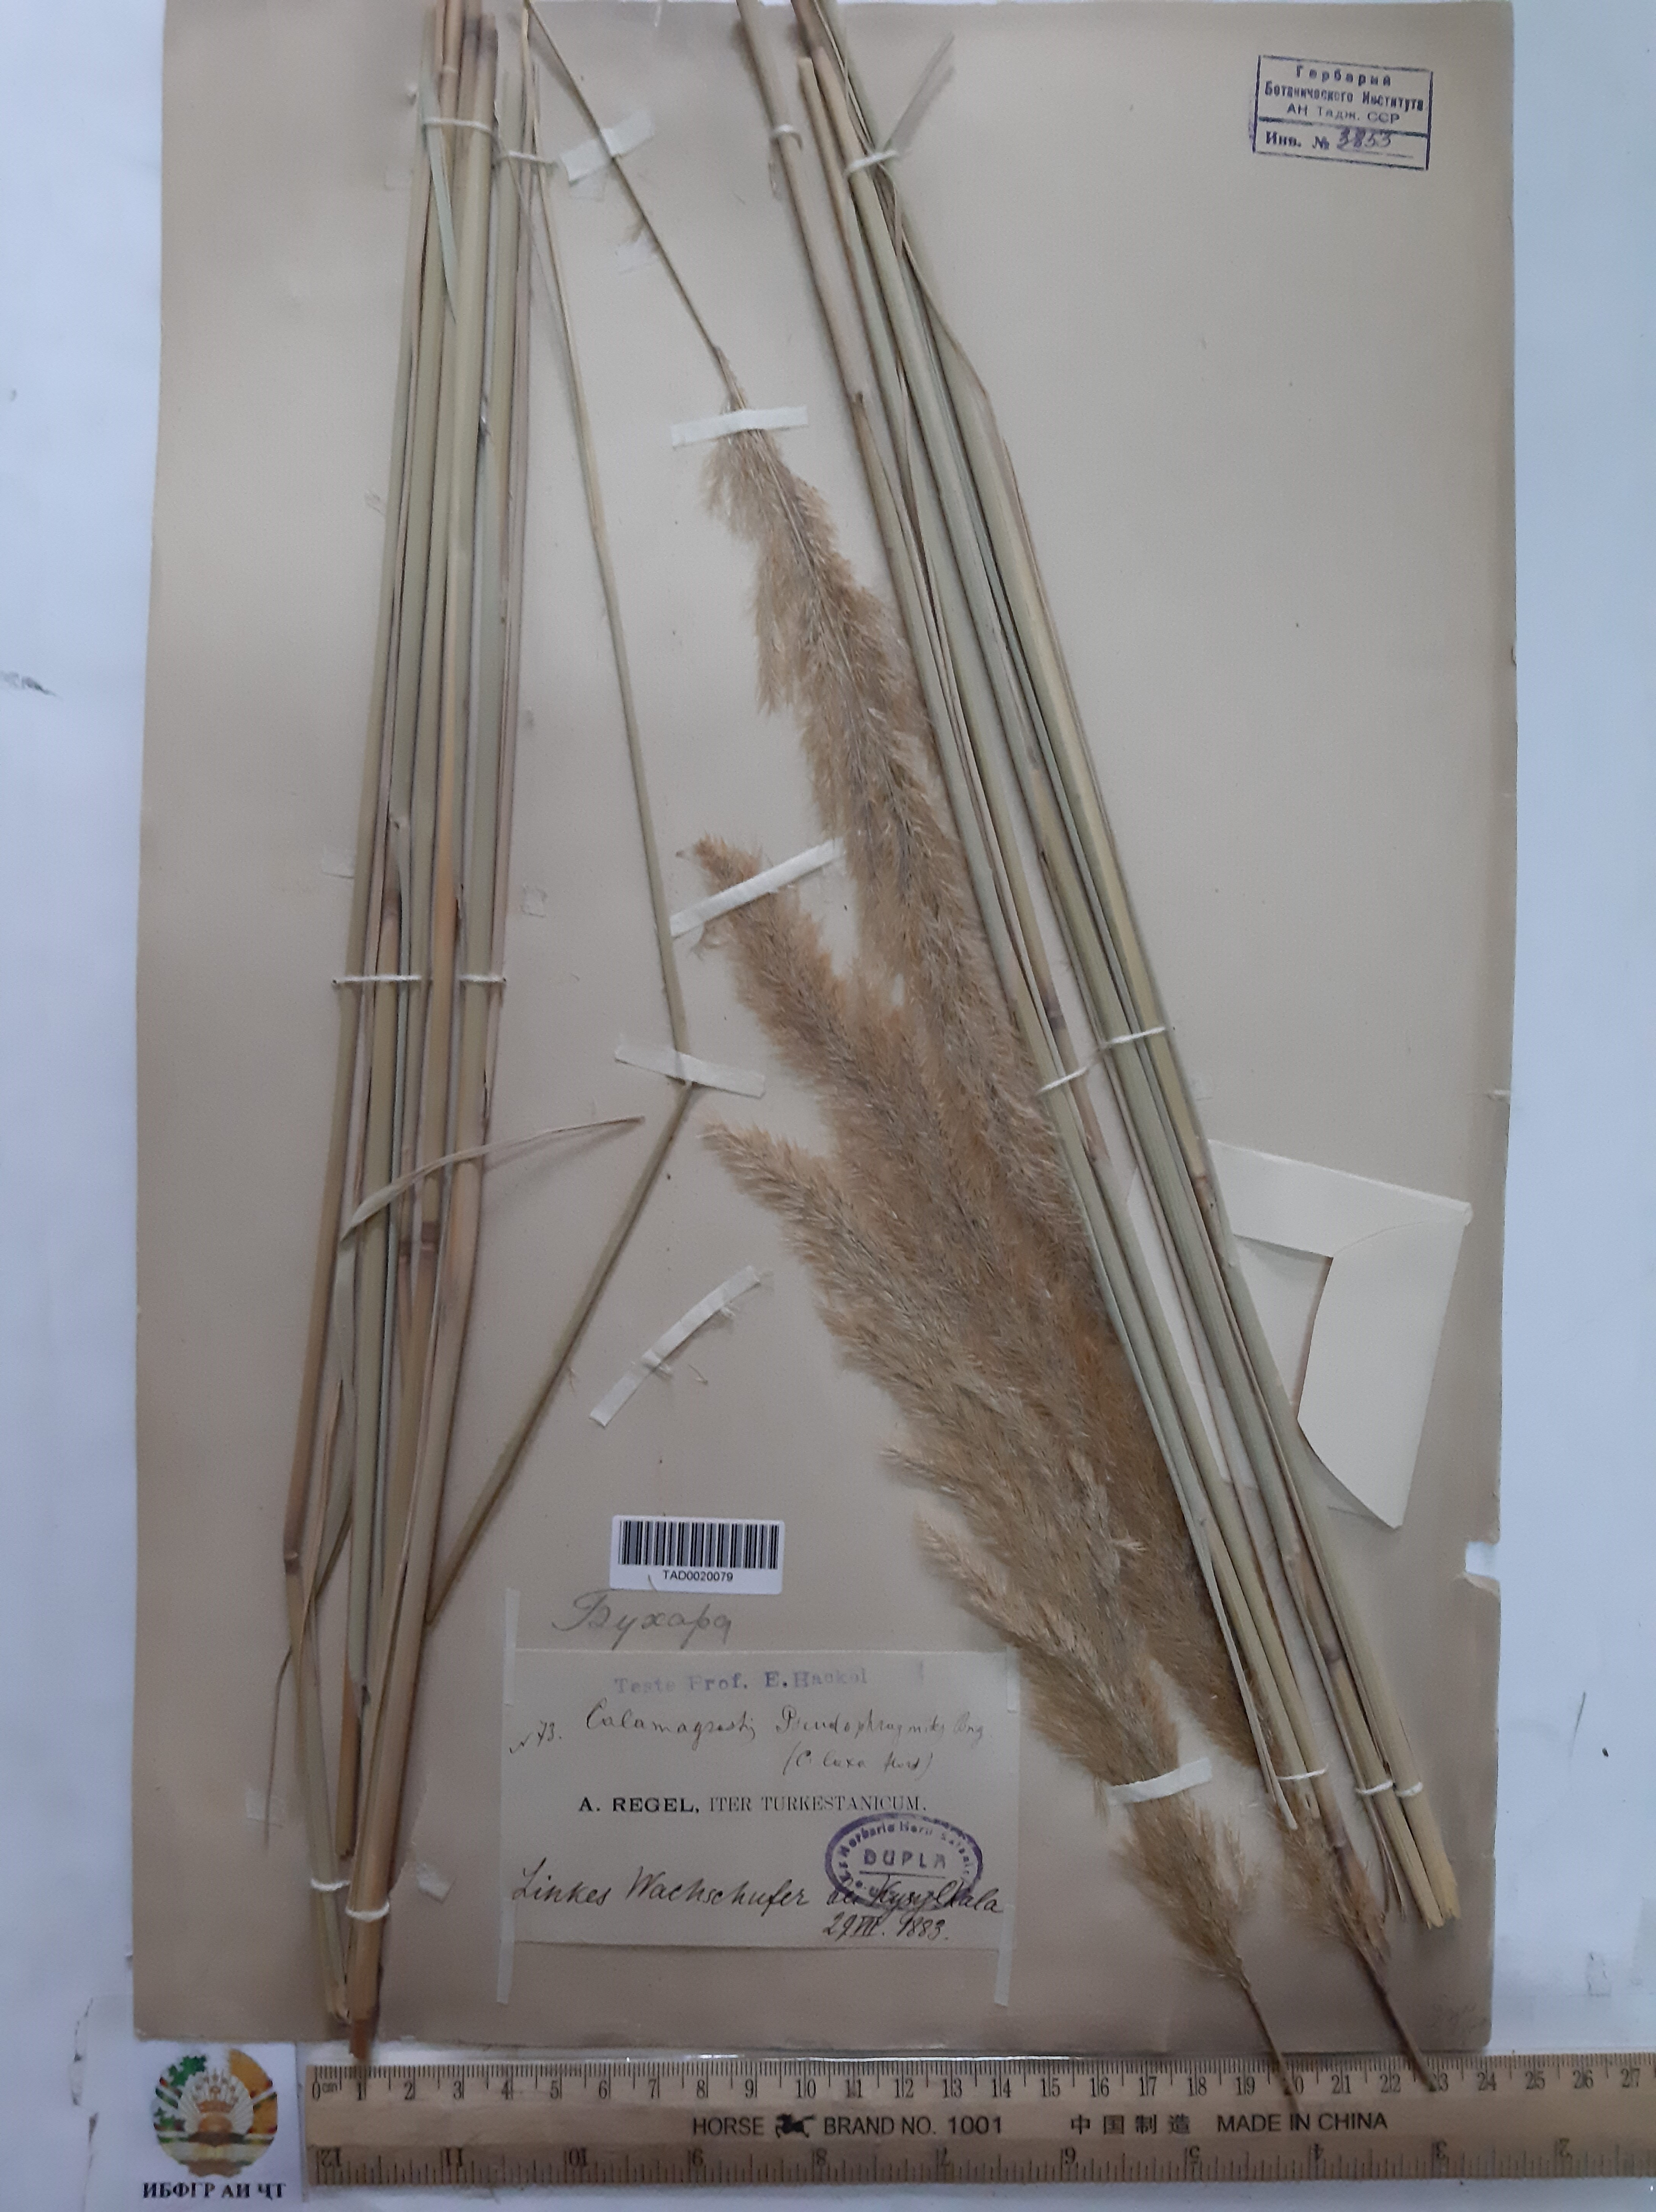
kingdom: Plantae
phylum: Tracheophyta
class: Liliopsida
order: Poales
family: Poaceae
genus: Calamagrostis
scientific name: Calamagrostis pseudophragmites
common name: Coastal small-reed
